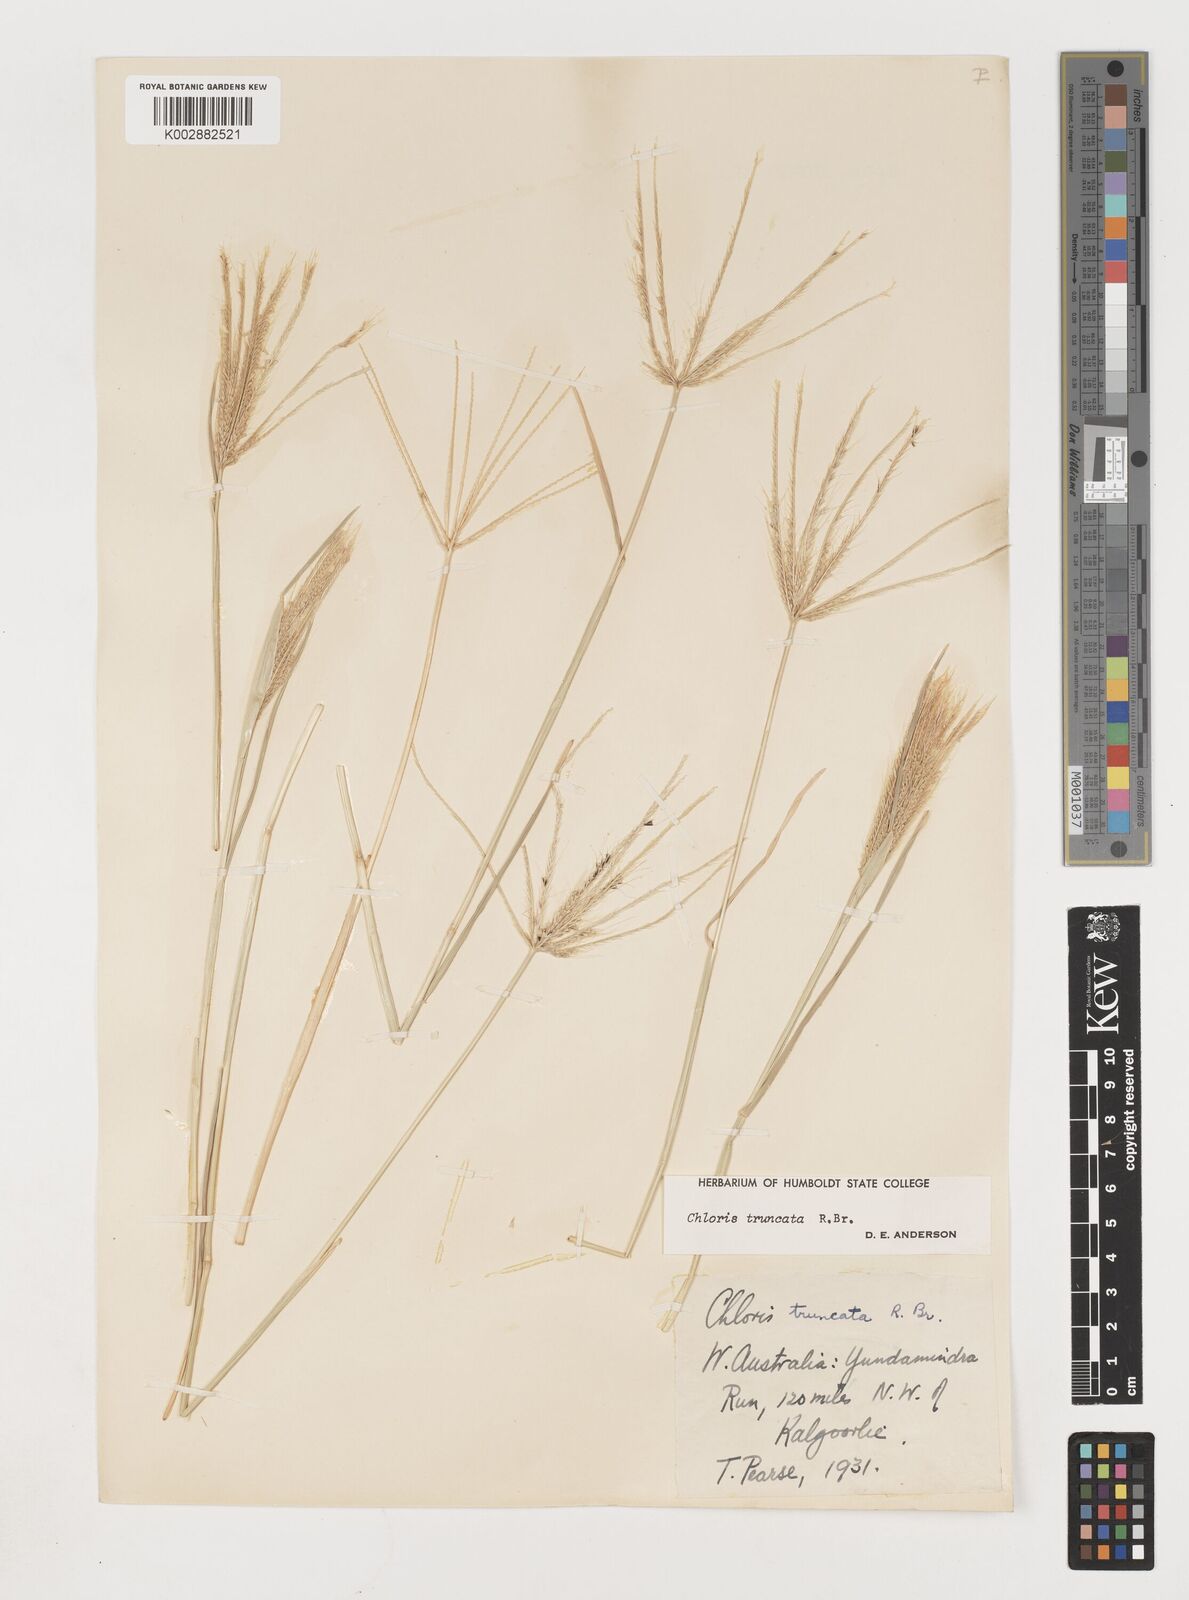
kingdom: Plantae
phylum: Tracheophyta
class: Liliopsida
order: Poales
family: Poaceae
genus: Chloris
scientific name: Chloris truncata
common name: Windmill-grass
